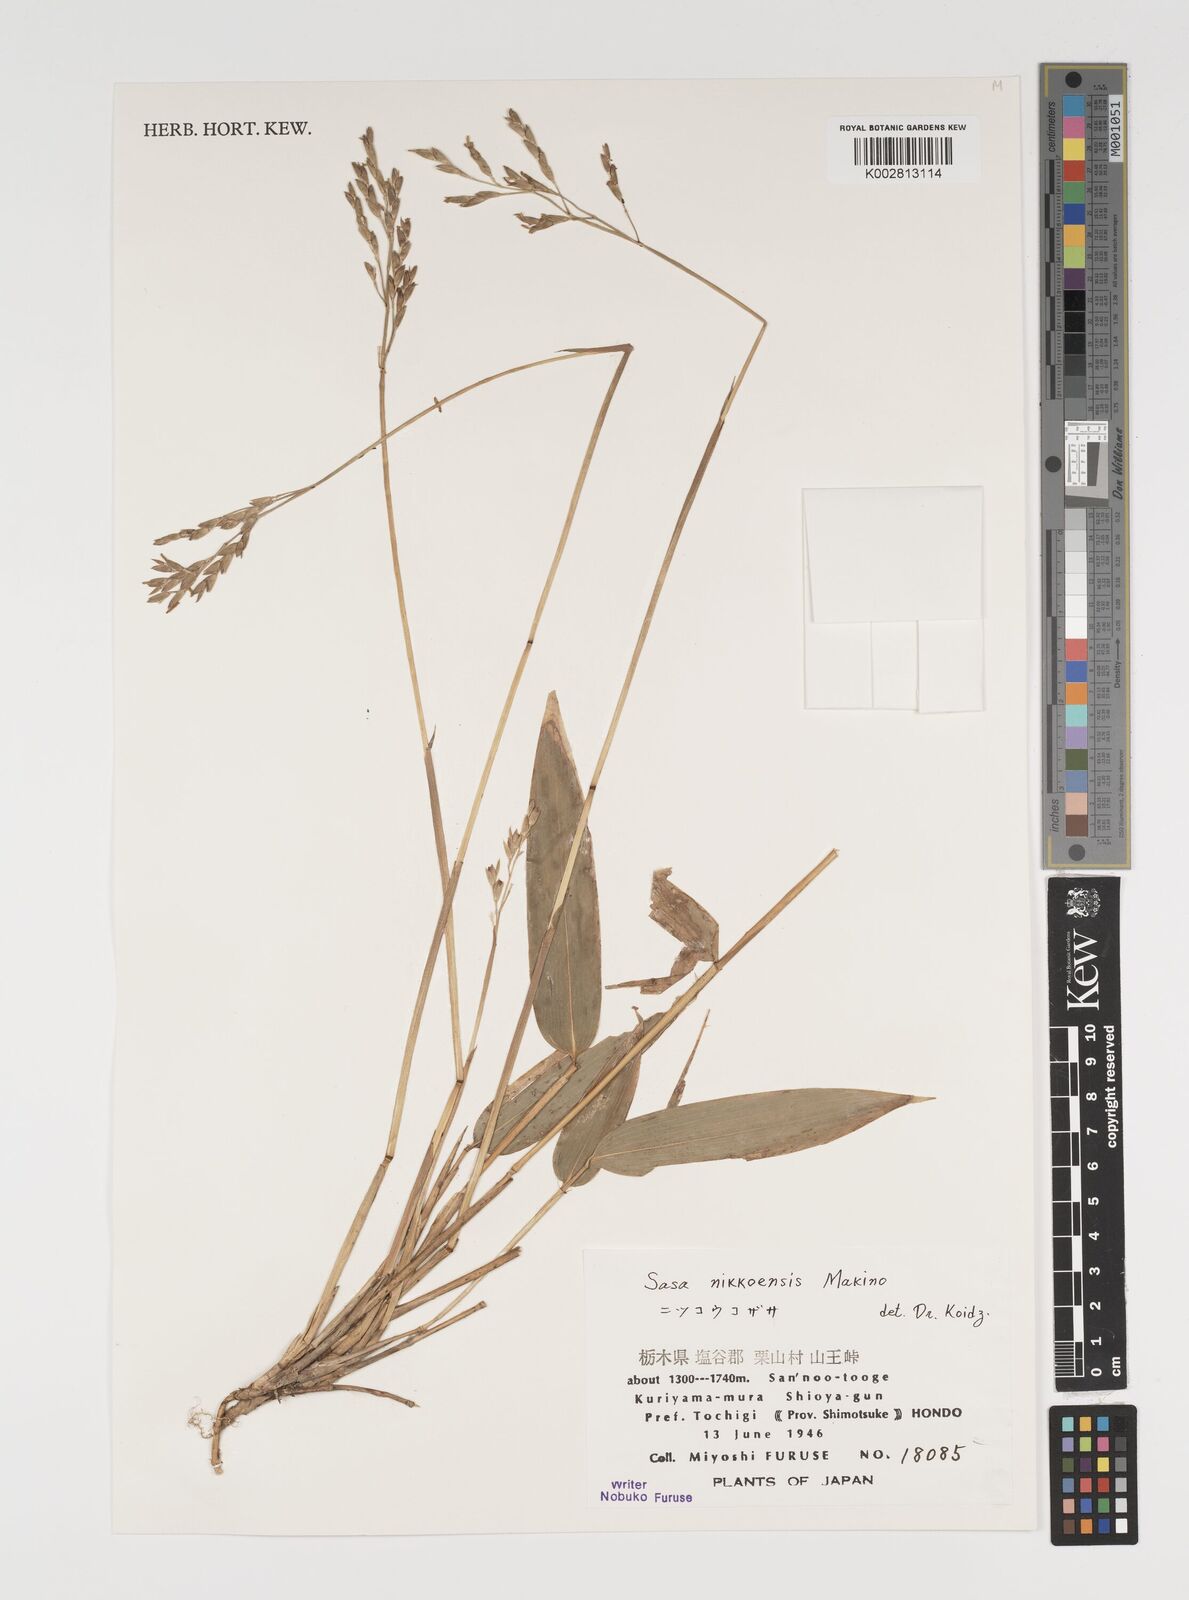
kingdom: Plantae
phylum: Tracheophyta
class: Liliopsida
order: Poales
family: Poaceae
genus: Sasa
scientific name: Sasa chartacea
